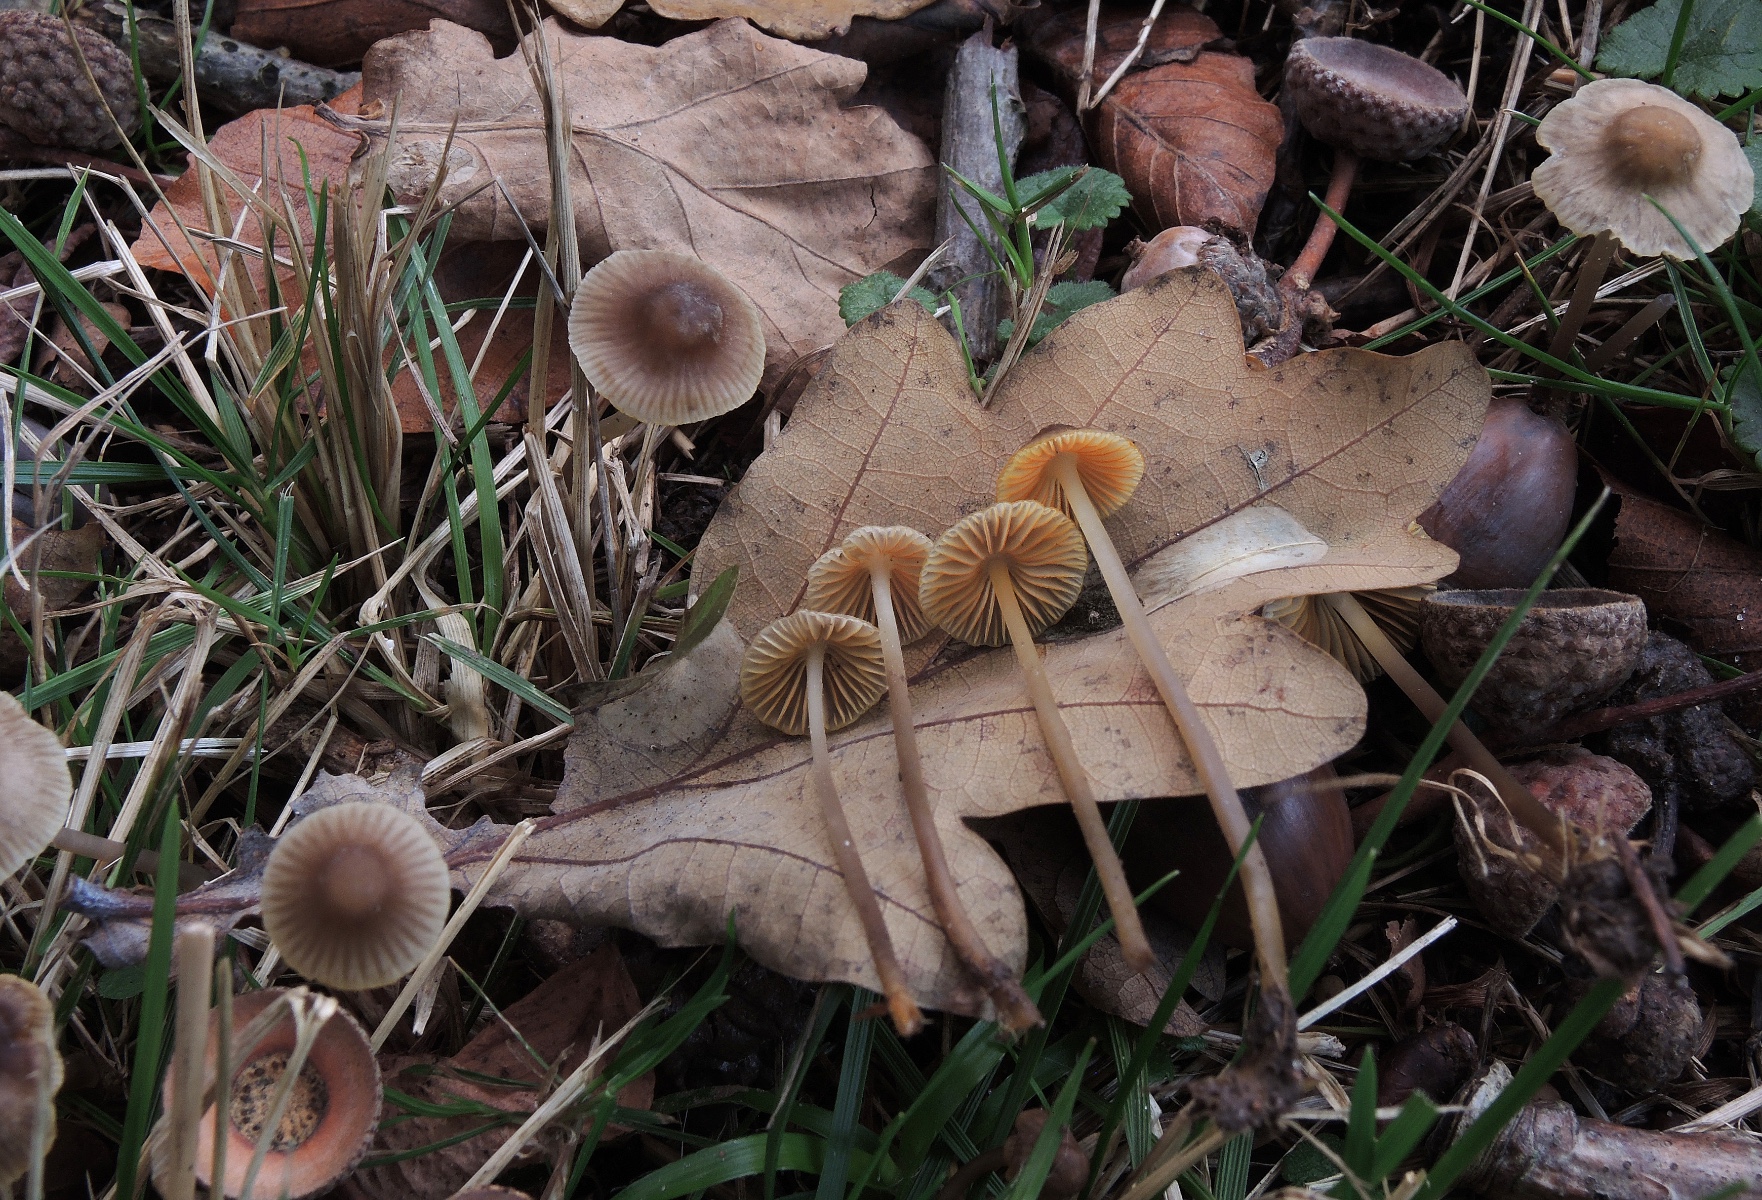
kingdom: Fungi
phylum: Basidiomycota
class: Agaricomycetes
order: Agaricales
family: Mycenaceae
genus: Mycena
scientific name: Mycena aurantiomarginata
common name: orangeægget huesvamp
